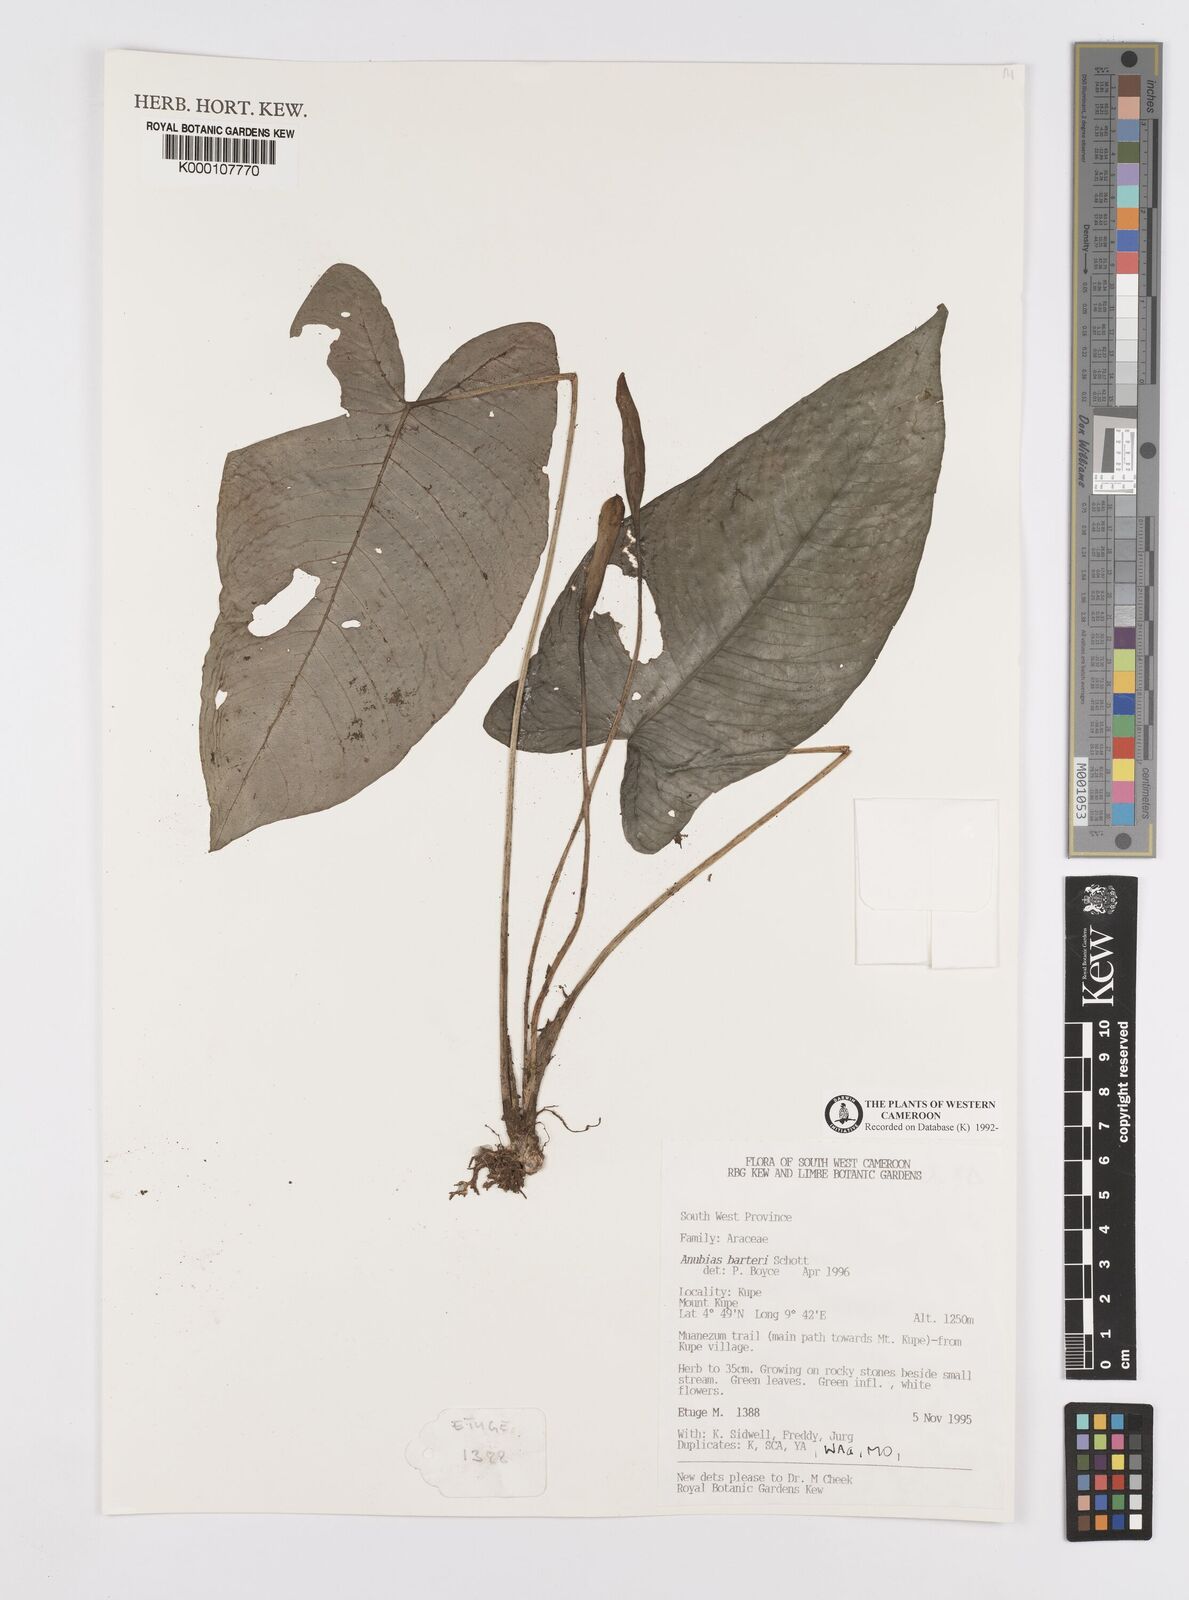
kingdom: Plantae
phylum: Tracheophyta
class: Liliopsida
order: Alismatales
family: Araceae
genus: Anubias
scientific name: Anubias barteri
